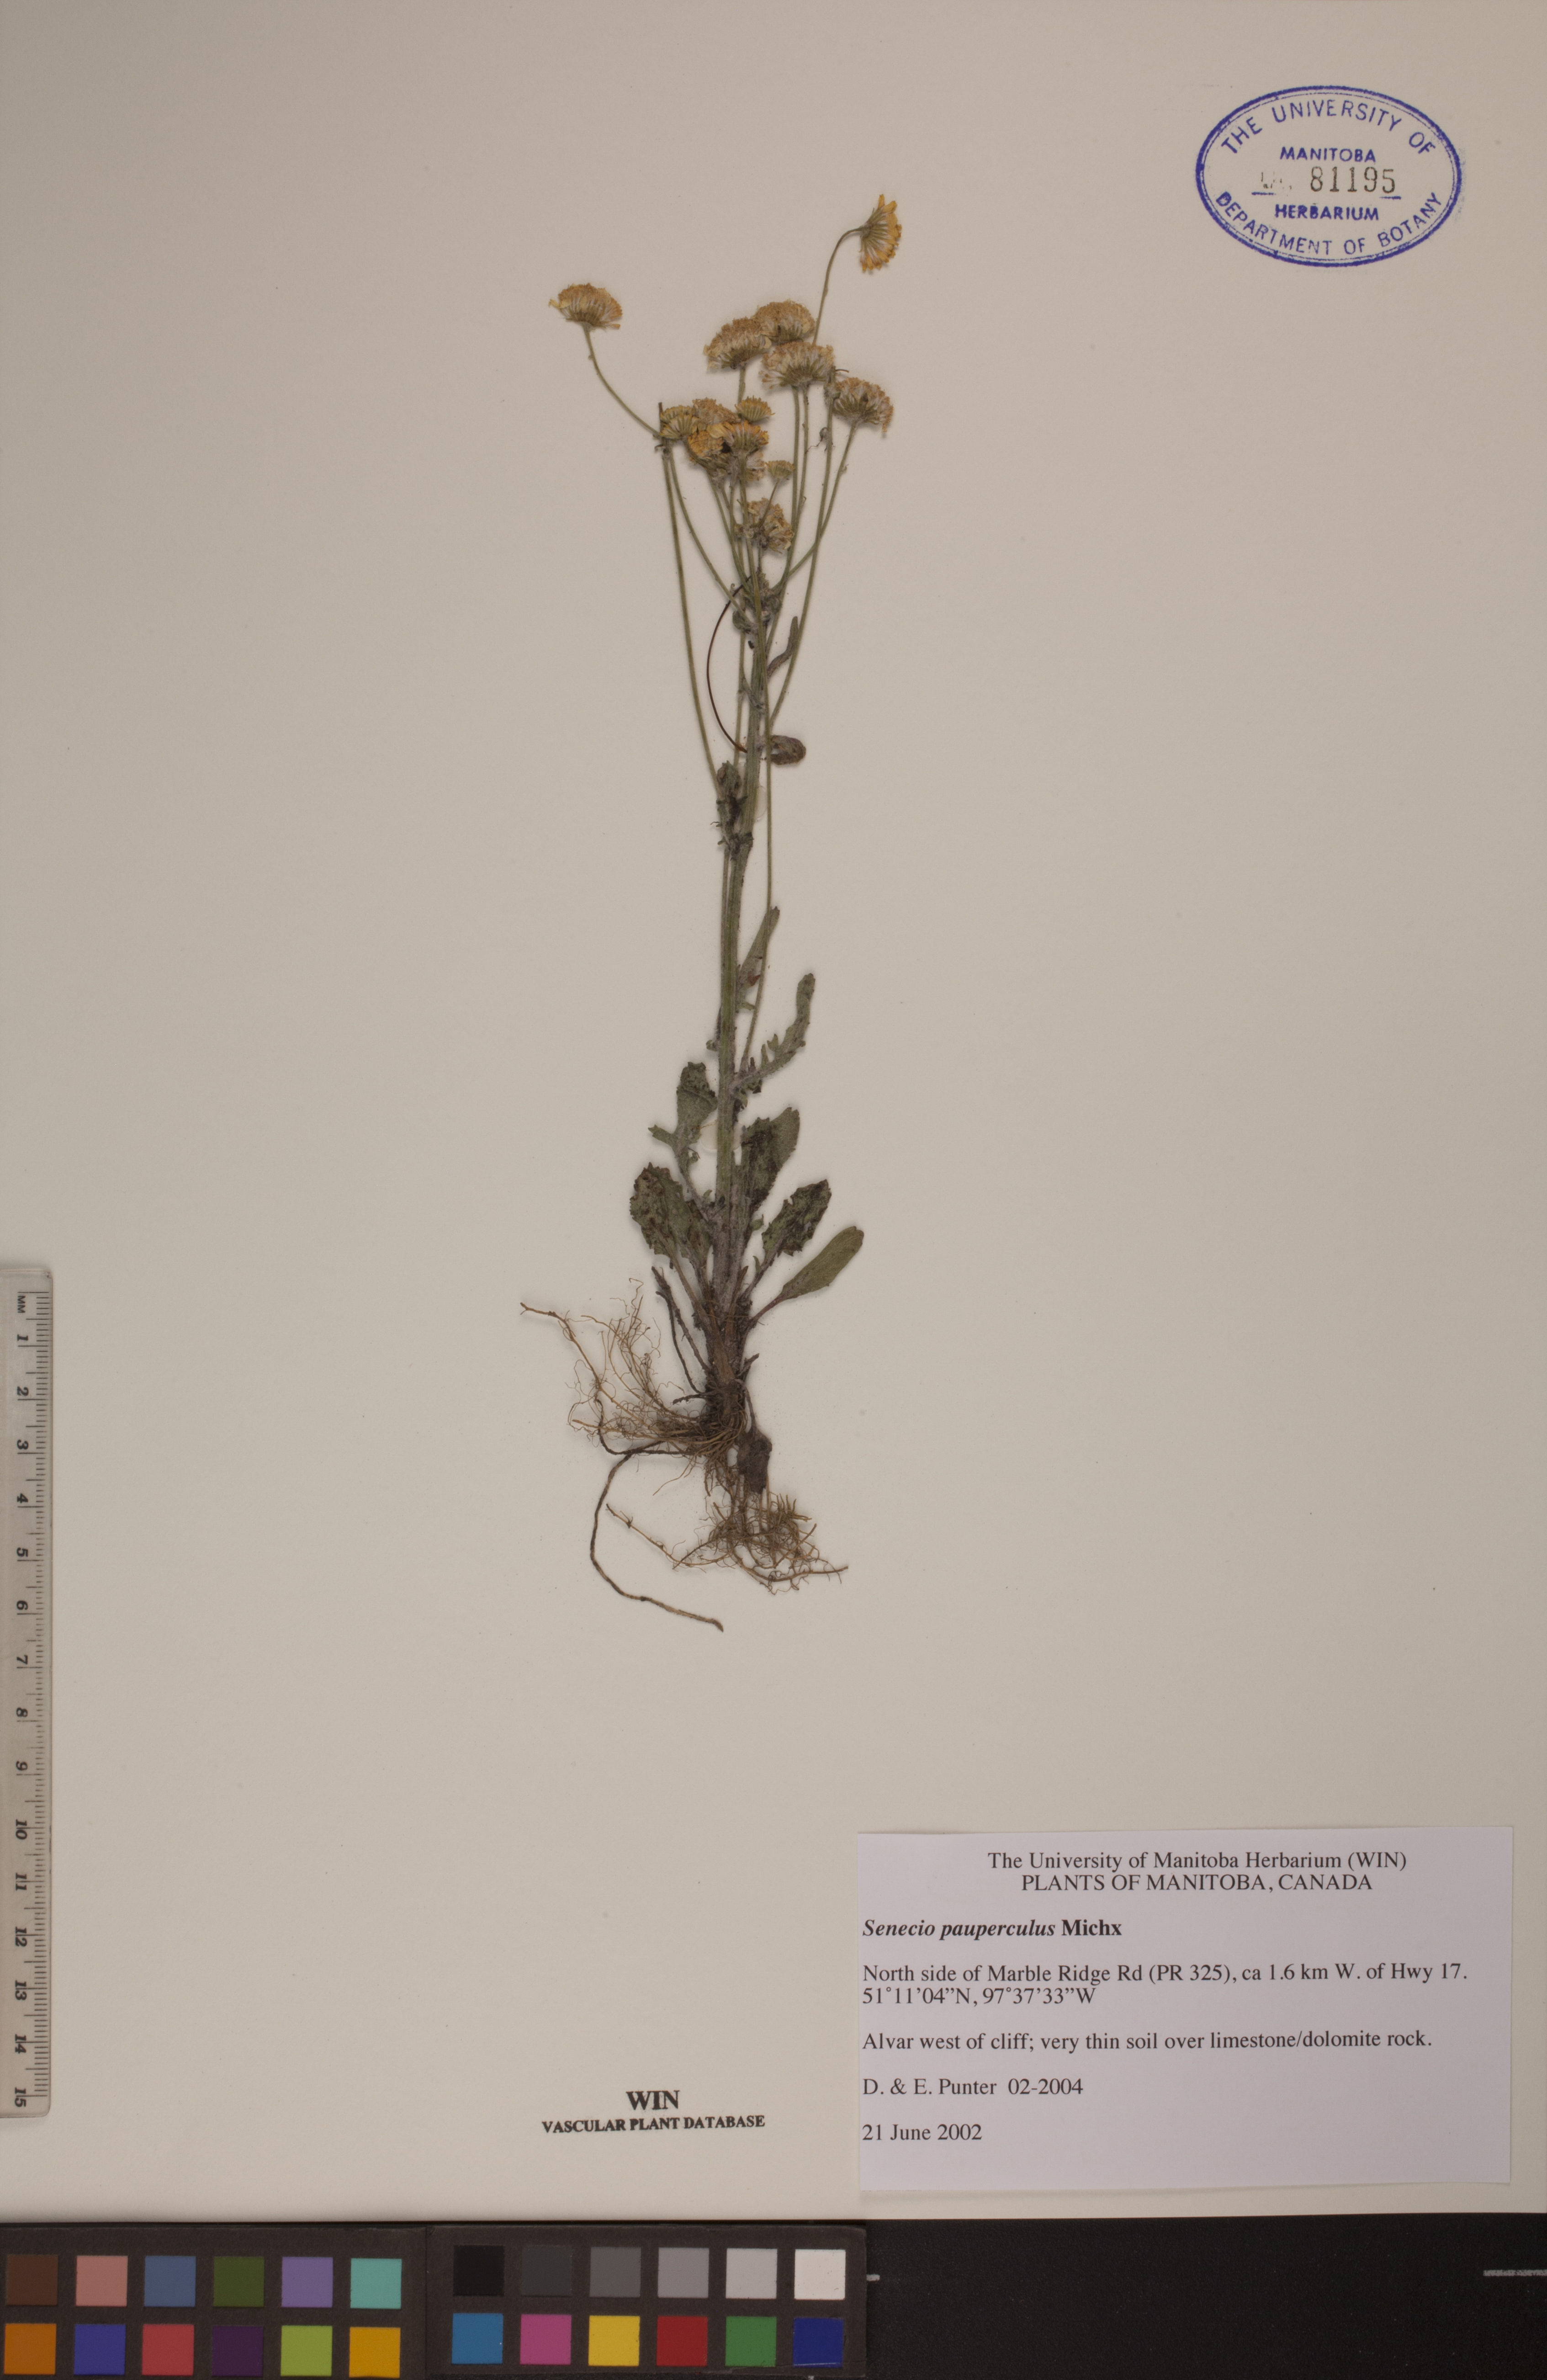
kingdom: Plantae
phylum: Tracheophyta
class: Magnoliopsida
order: Asterales
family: Asteraceae
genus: Packera
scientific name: Packera paupercula
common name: Balsam groundsel
